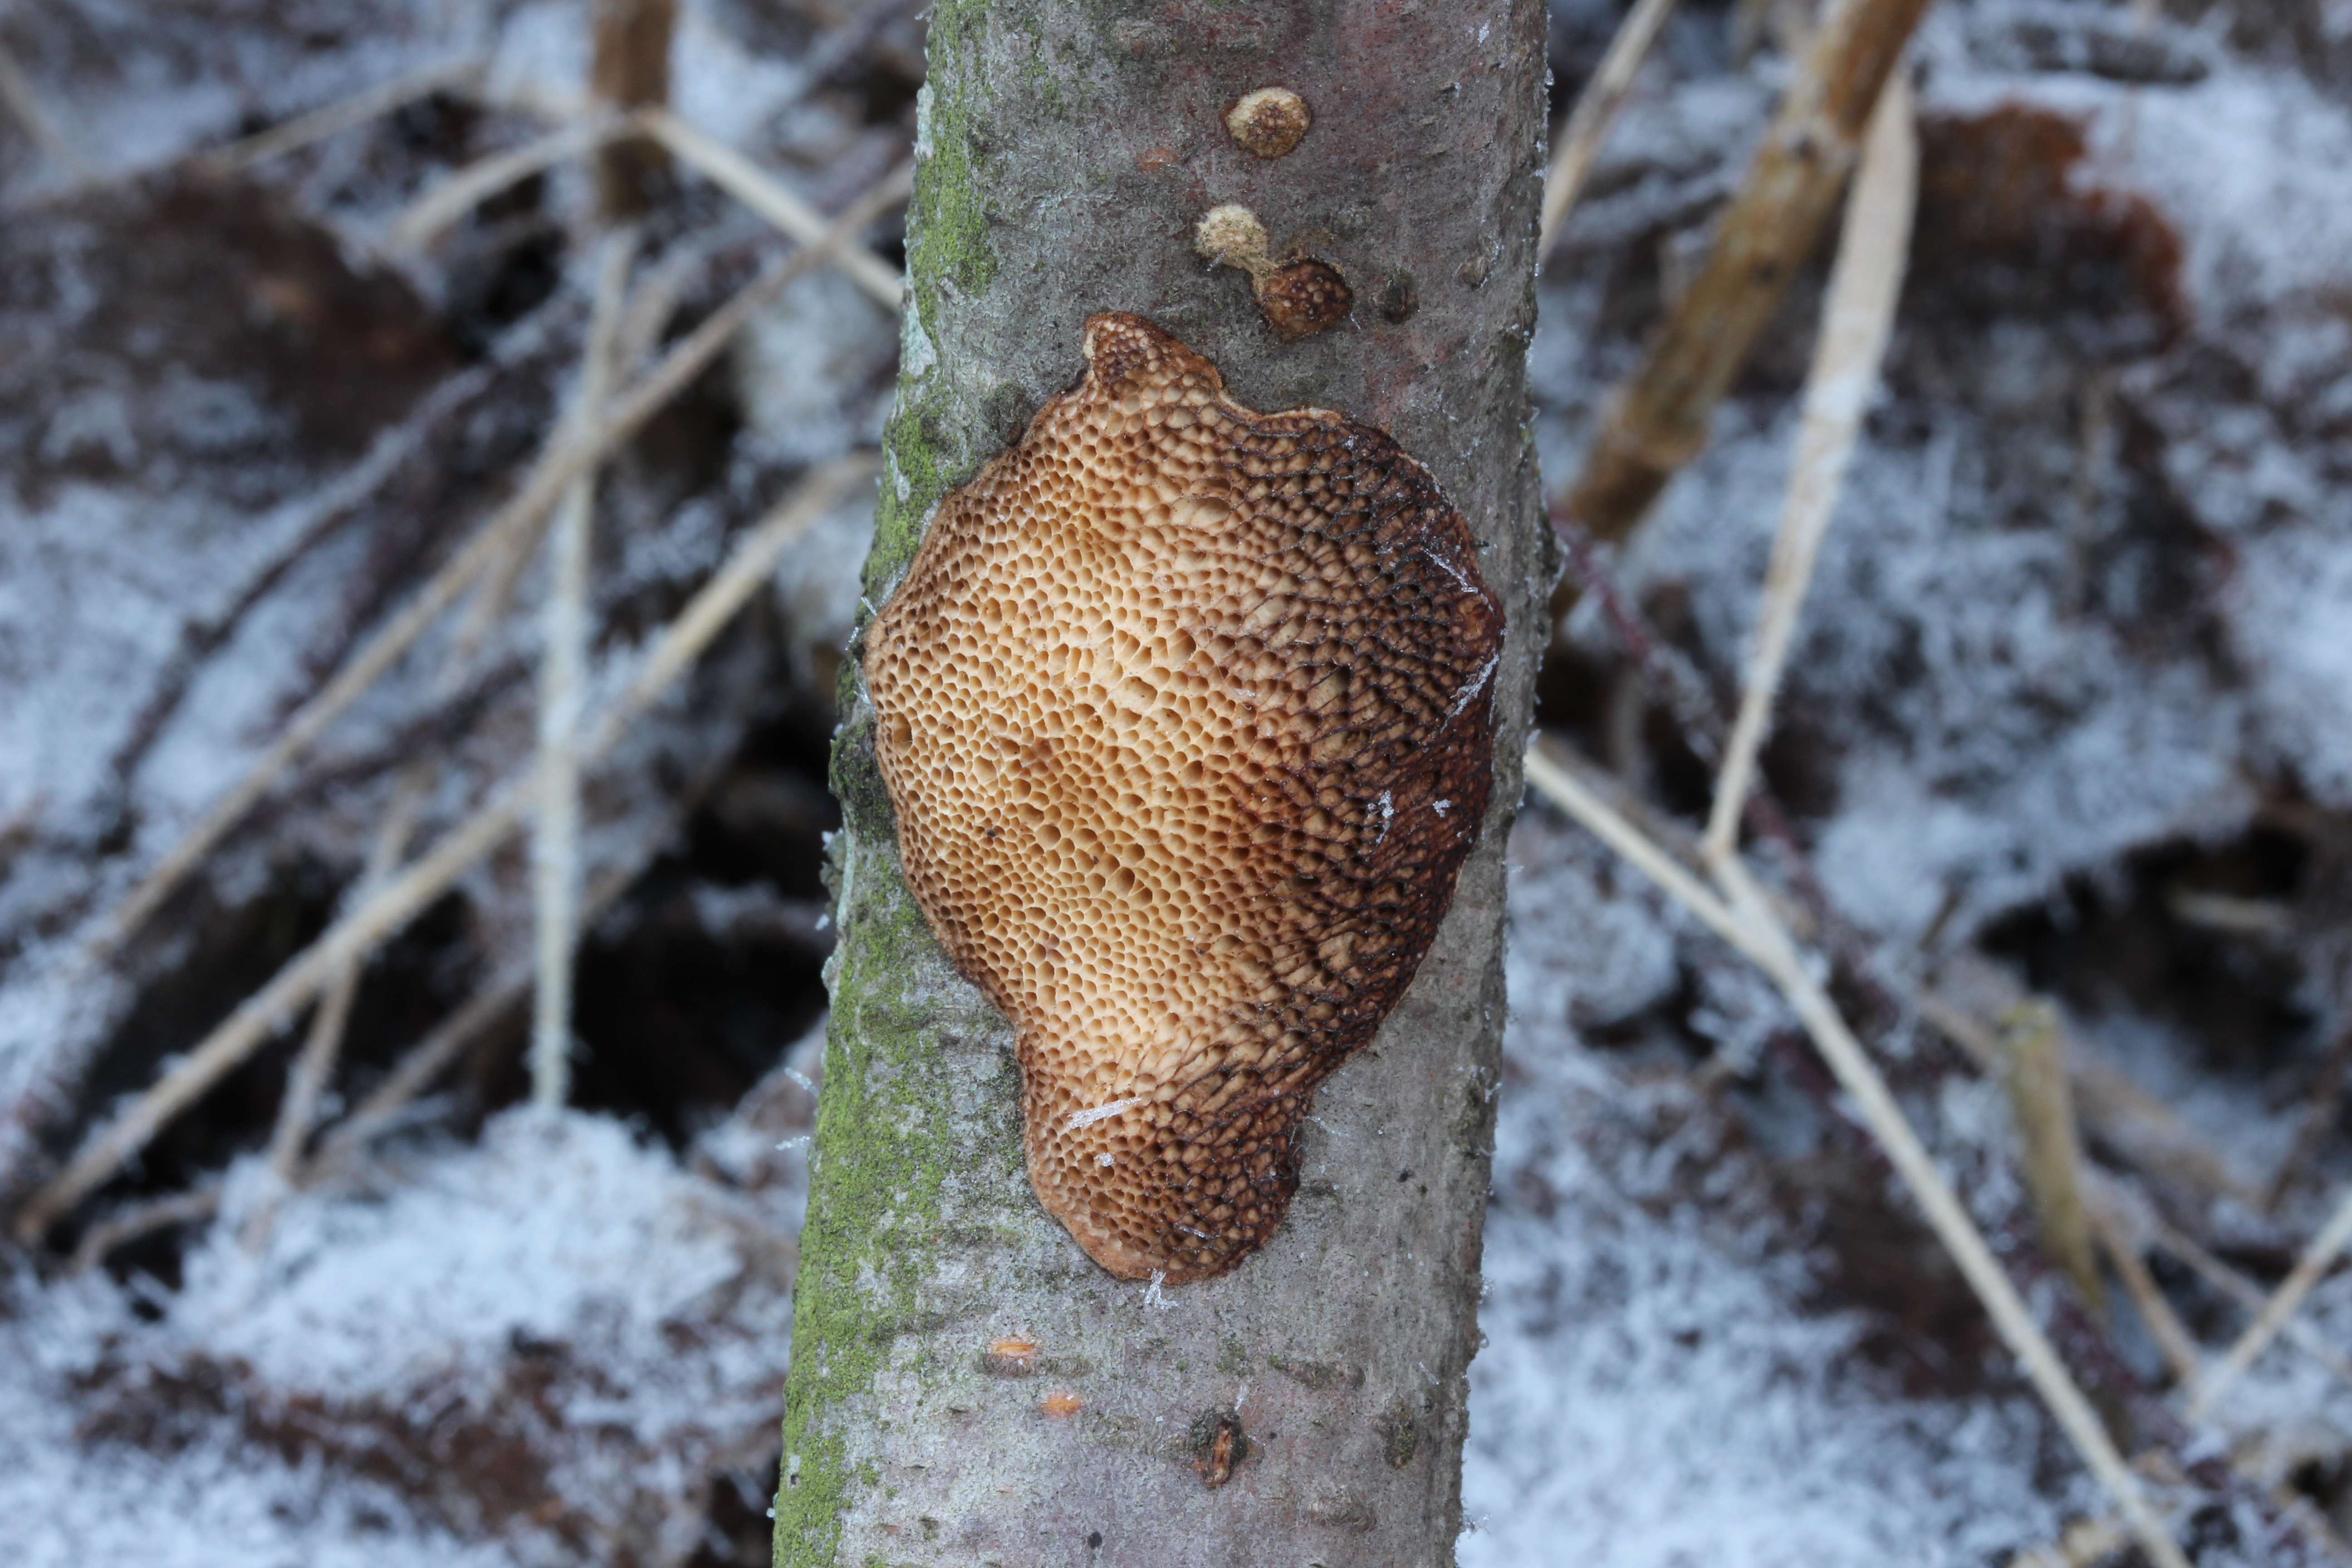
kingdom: Fungi
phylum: Basidiomycota
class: Agaricomycetes
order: Polyporales
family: Polyporaceae
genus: Szczepkamyces
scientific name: Szczepkamyces campestris
